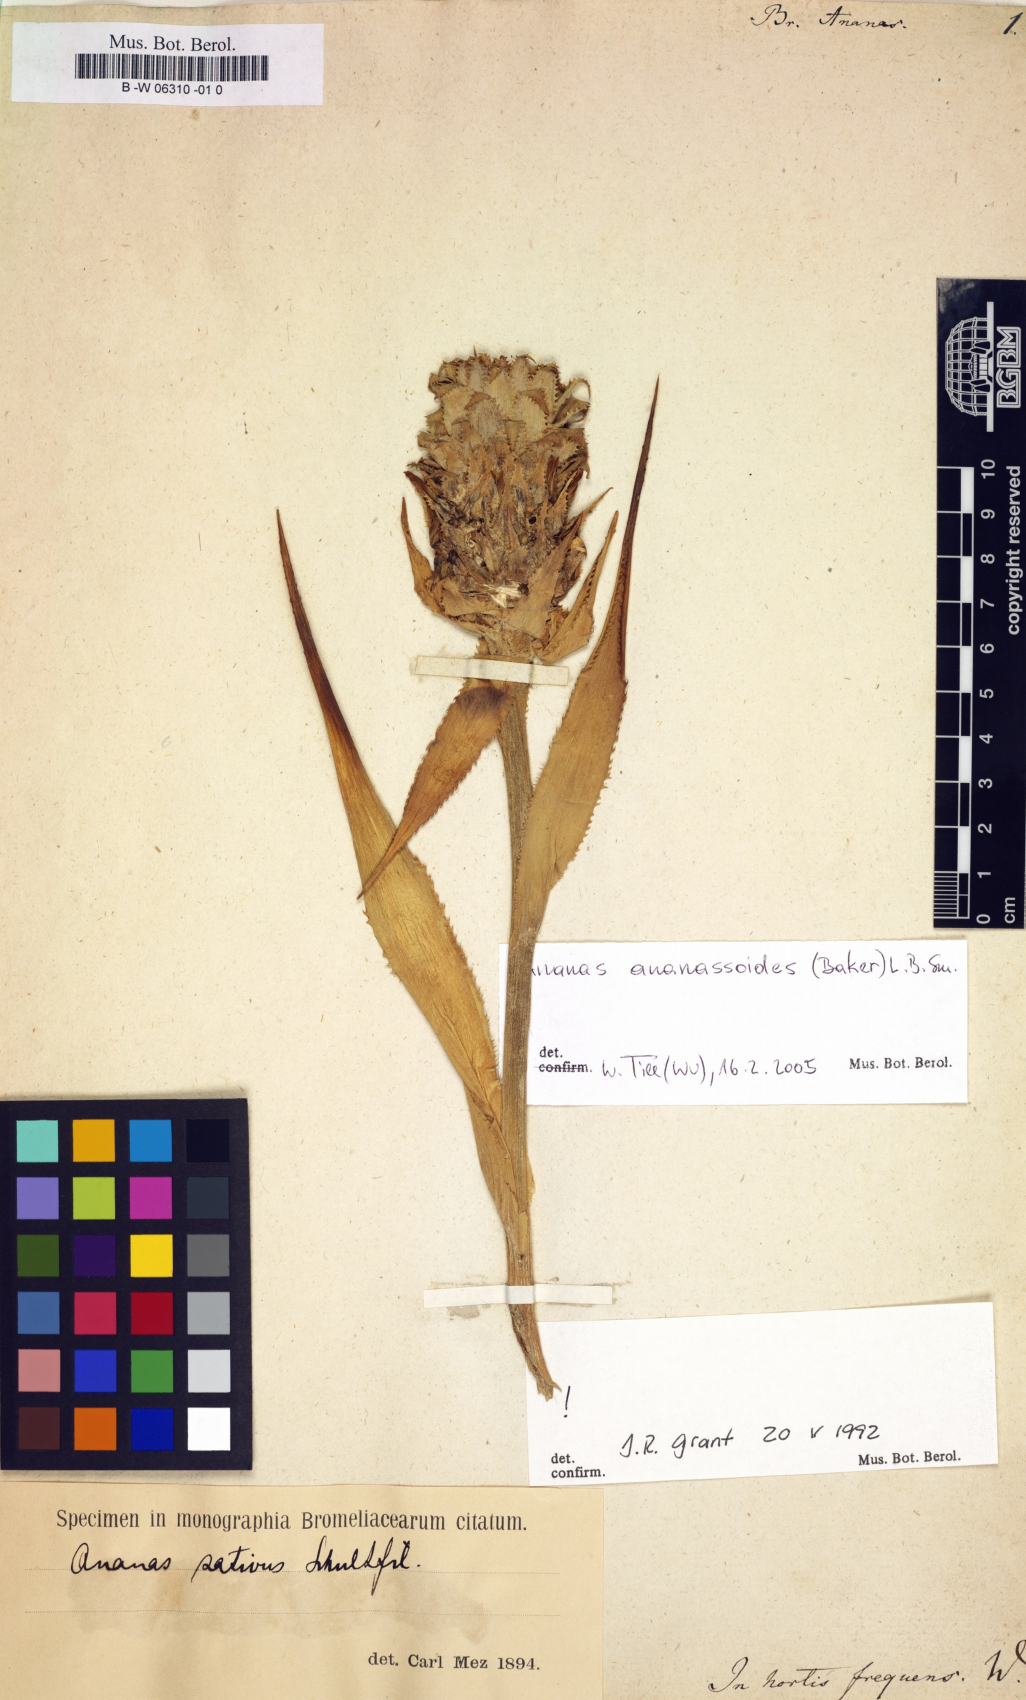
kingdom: Plantae
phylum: Tracheophyta
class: Liliopsida
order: Poales
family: Bromeliaceae
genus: Ananas
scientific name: Ananas comosus
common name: Pineapple
